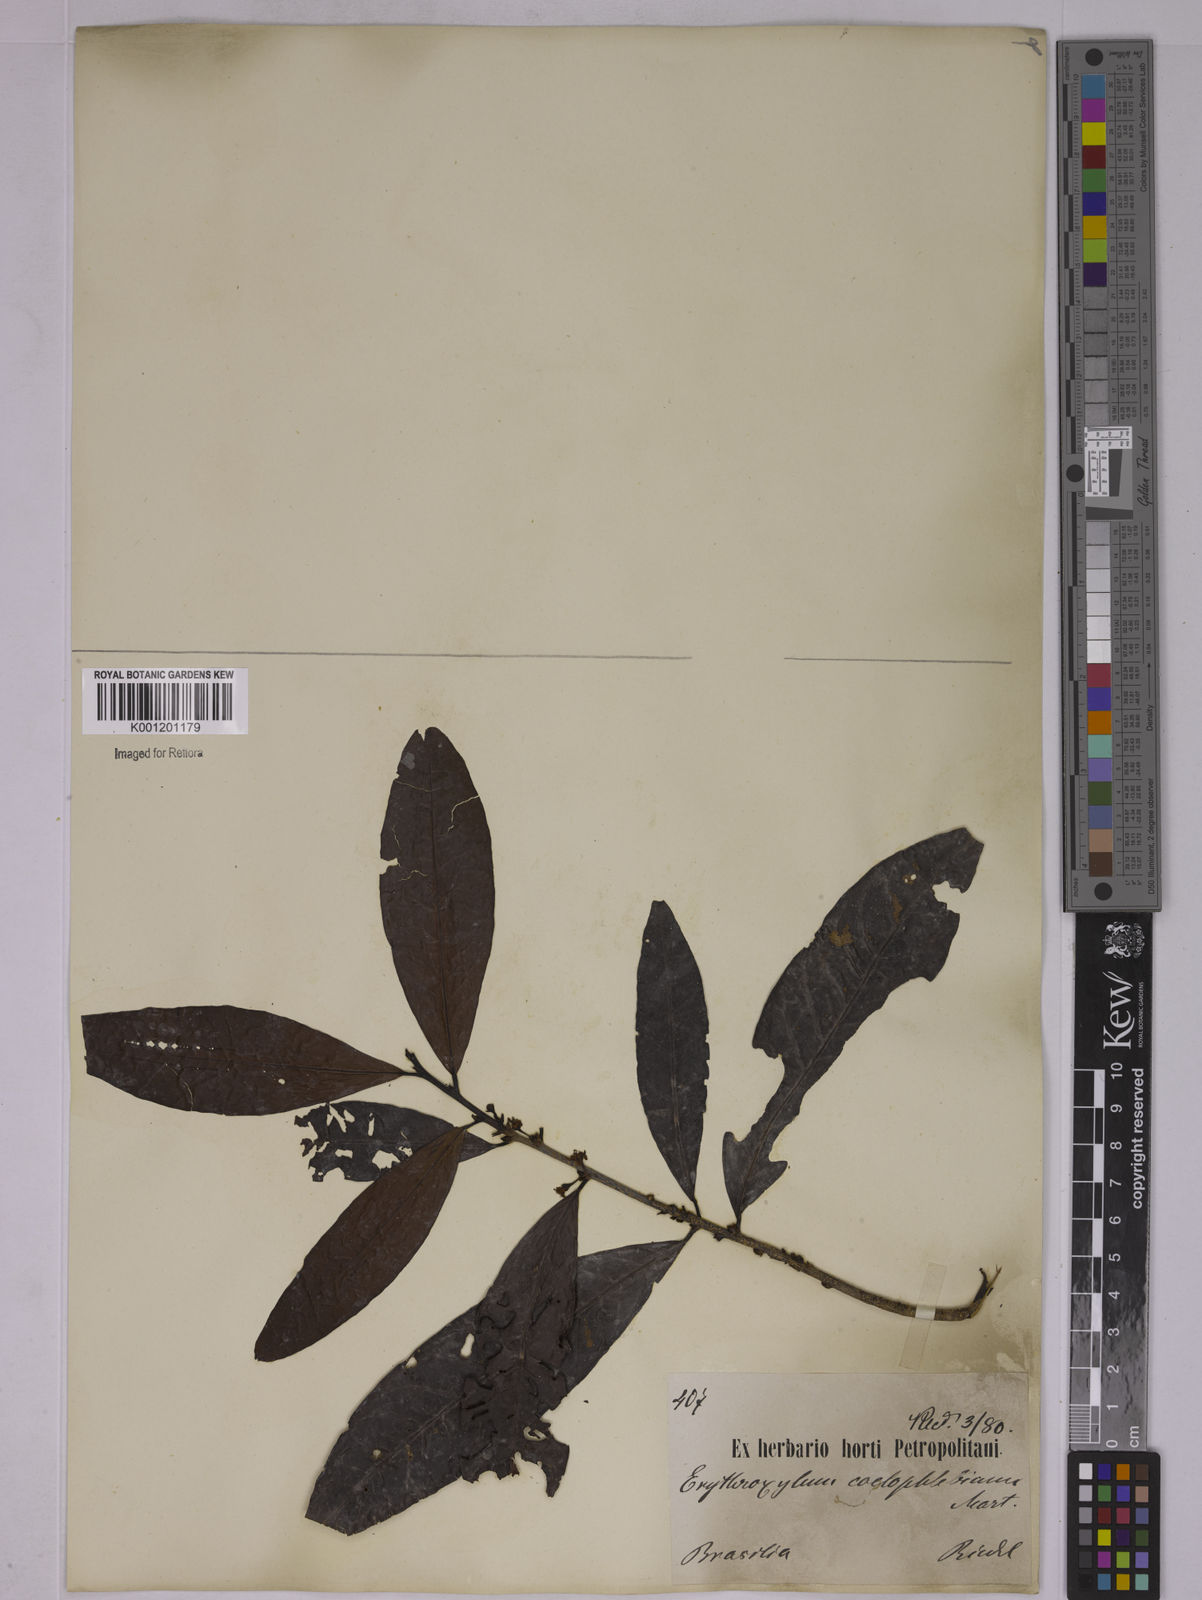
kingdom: Plantae
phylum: Tracheophyta
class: Magnoliopsida
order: Malpighiales
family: Erythroxylaceae
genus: Erythroxylum
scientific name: Erythroxylum coelophlebium
